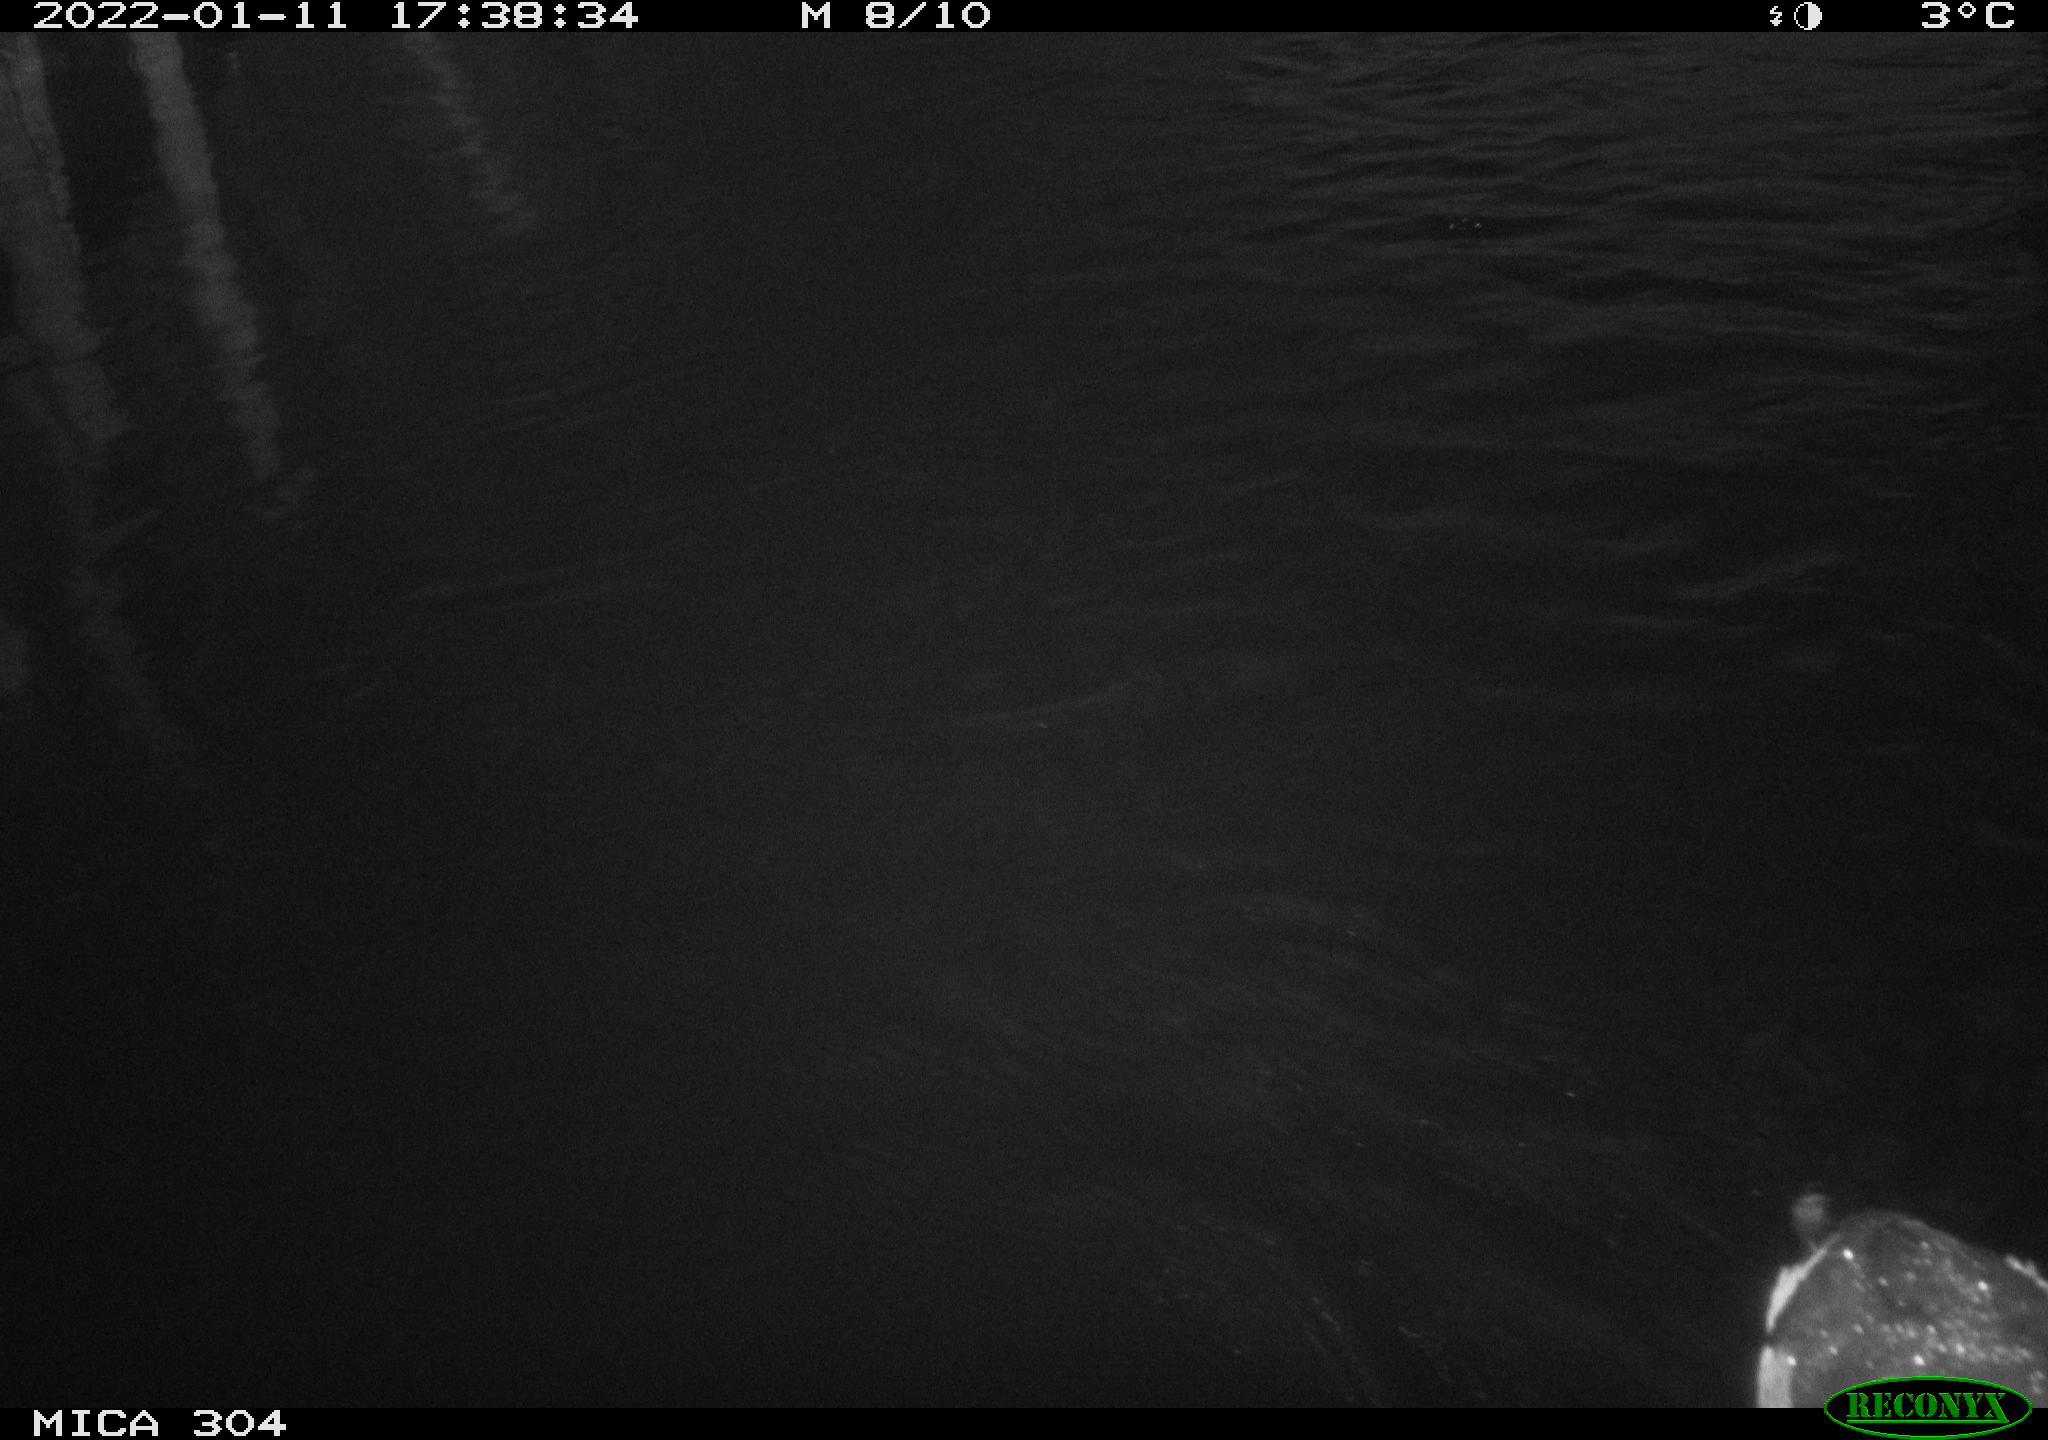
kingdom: Animalia
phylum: Chordata
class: Aves
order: Gruiformes
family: Rallidae
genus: Fulica
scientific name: Fulica atra
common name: Eurasian coot
